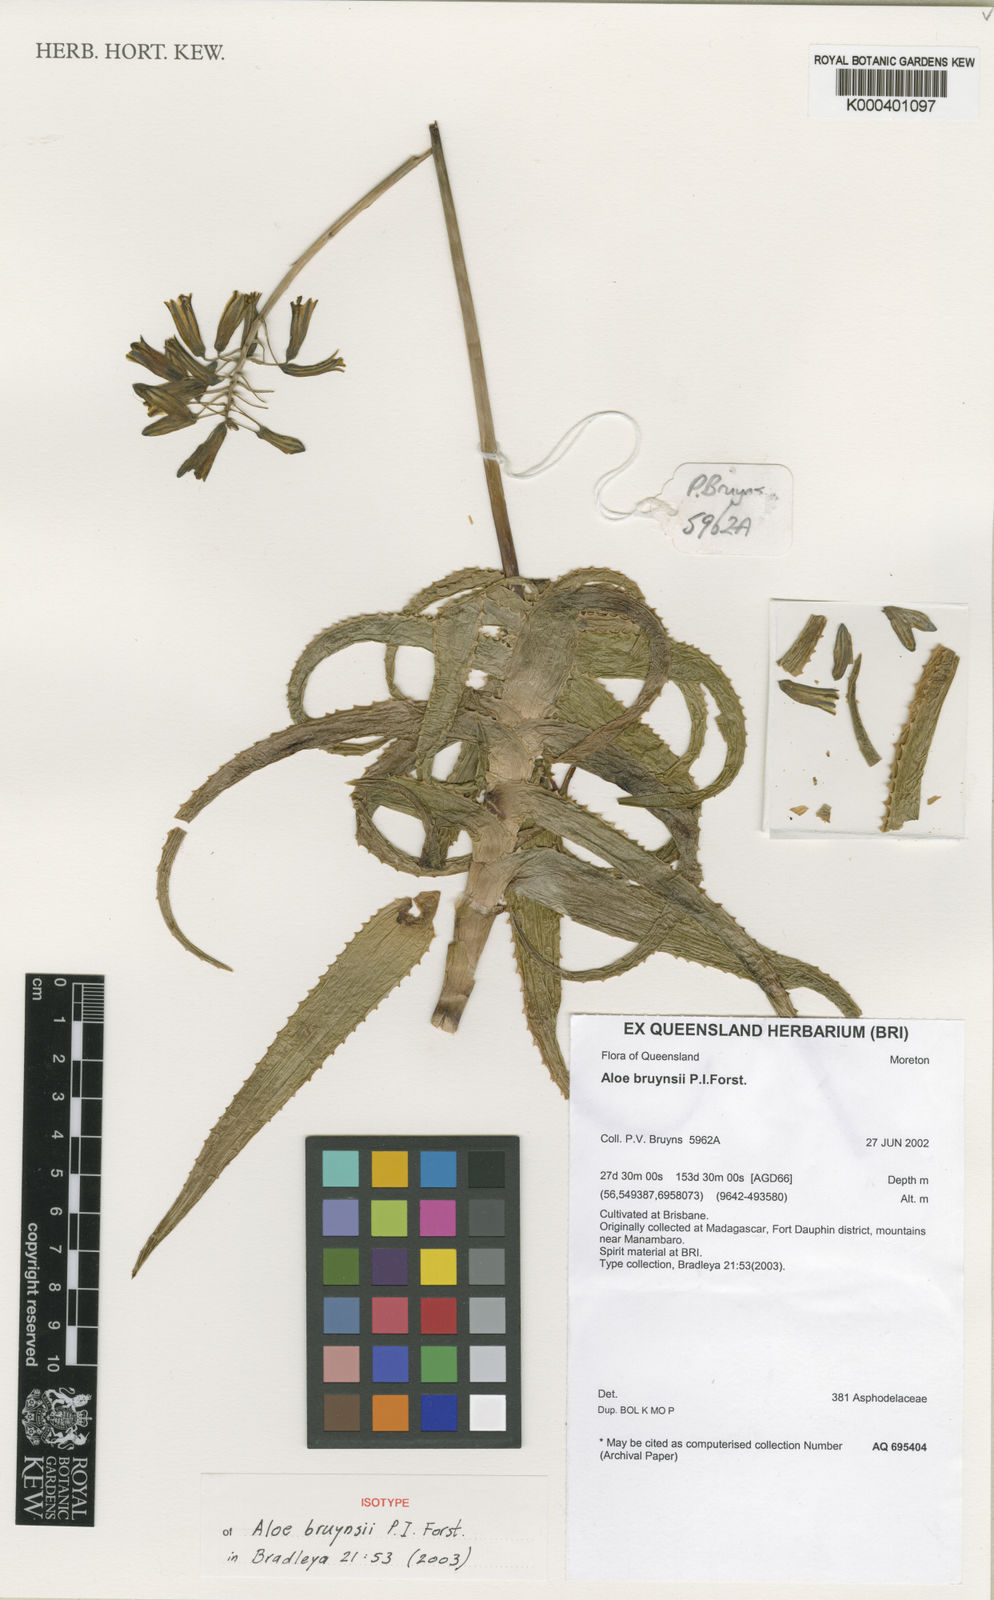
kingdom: Plantae
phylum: Tracheophyta
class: Liliopsida
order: Asparagales
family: Asphodelaceae
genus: Aloe
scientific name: Aloe bruynsii
